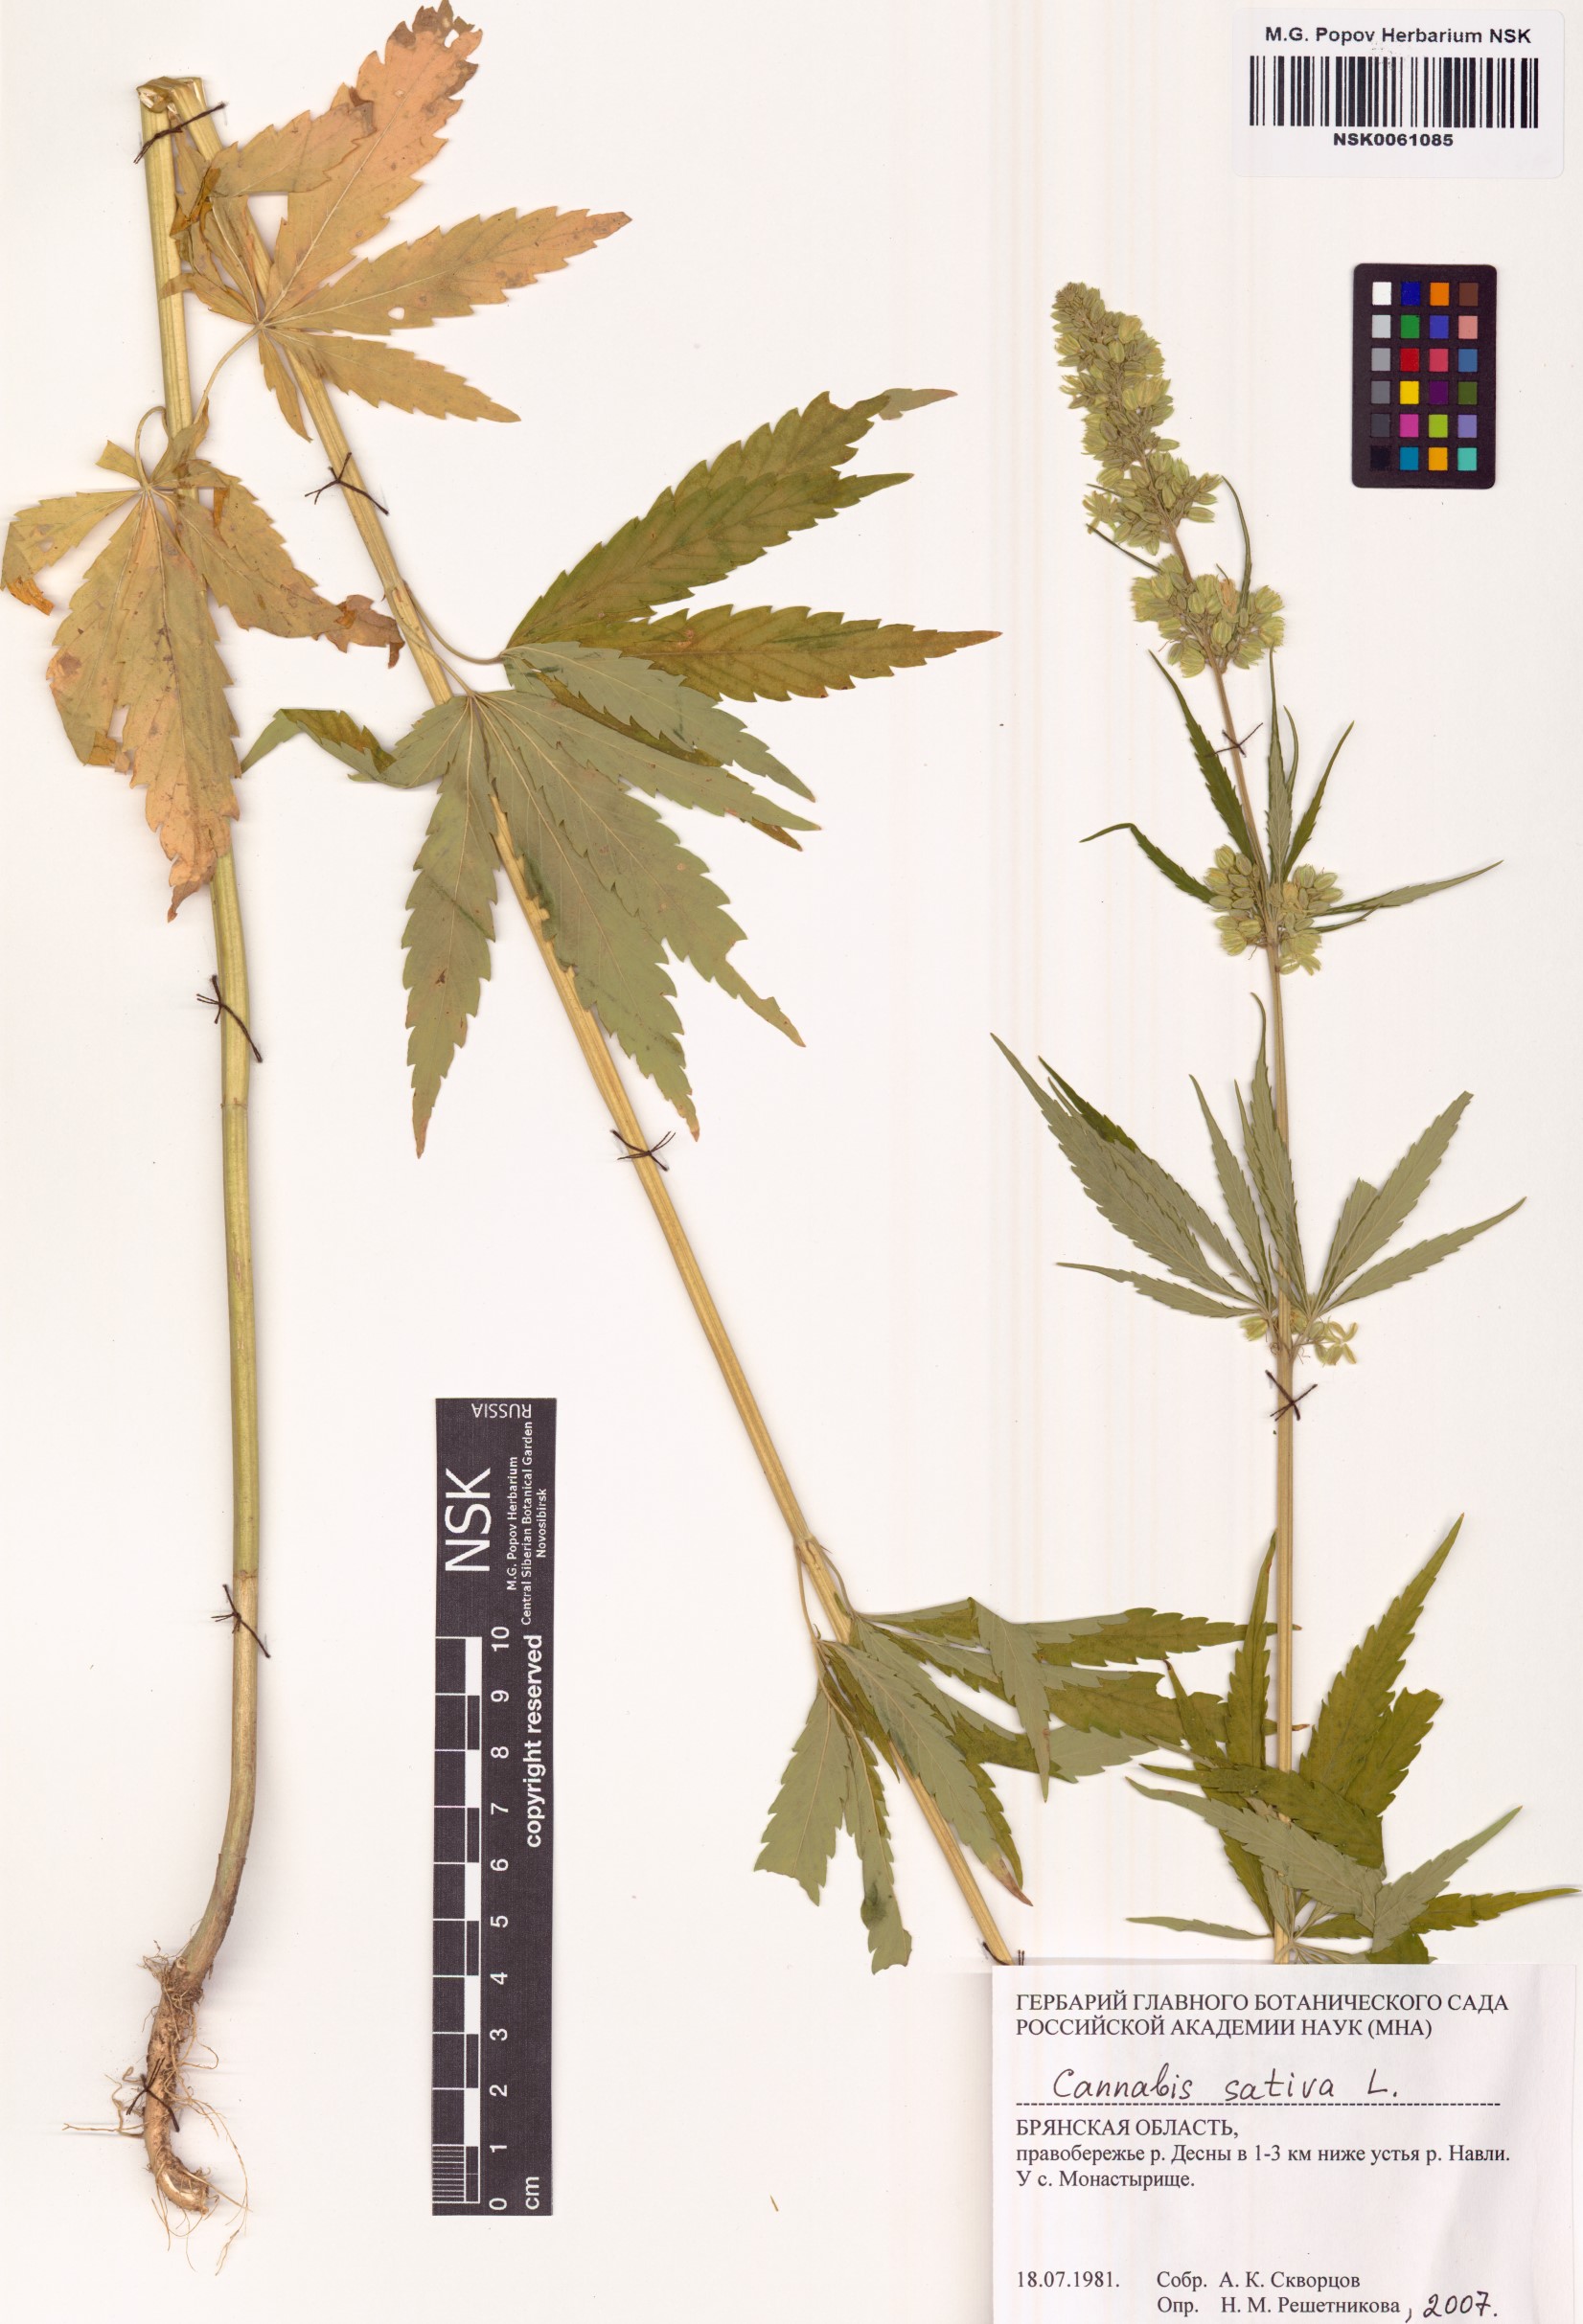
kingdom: Plantae
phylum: Tracheophyta
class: Magnoliopsida
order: Rosales
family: Cannabaceae
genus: Cannabis
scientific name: Cannabis sativa
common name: Hemp
